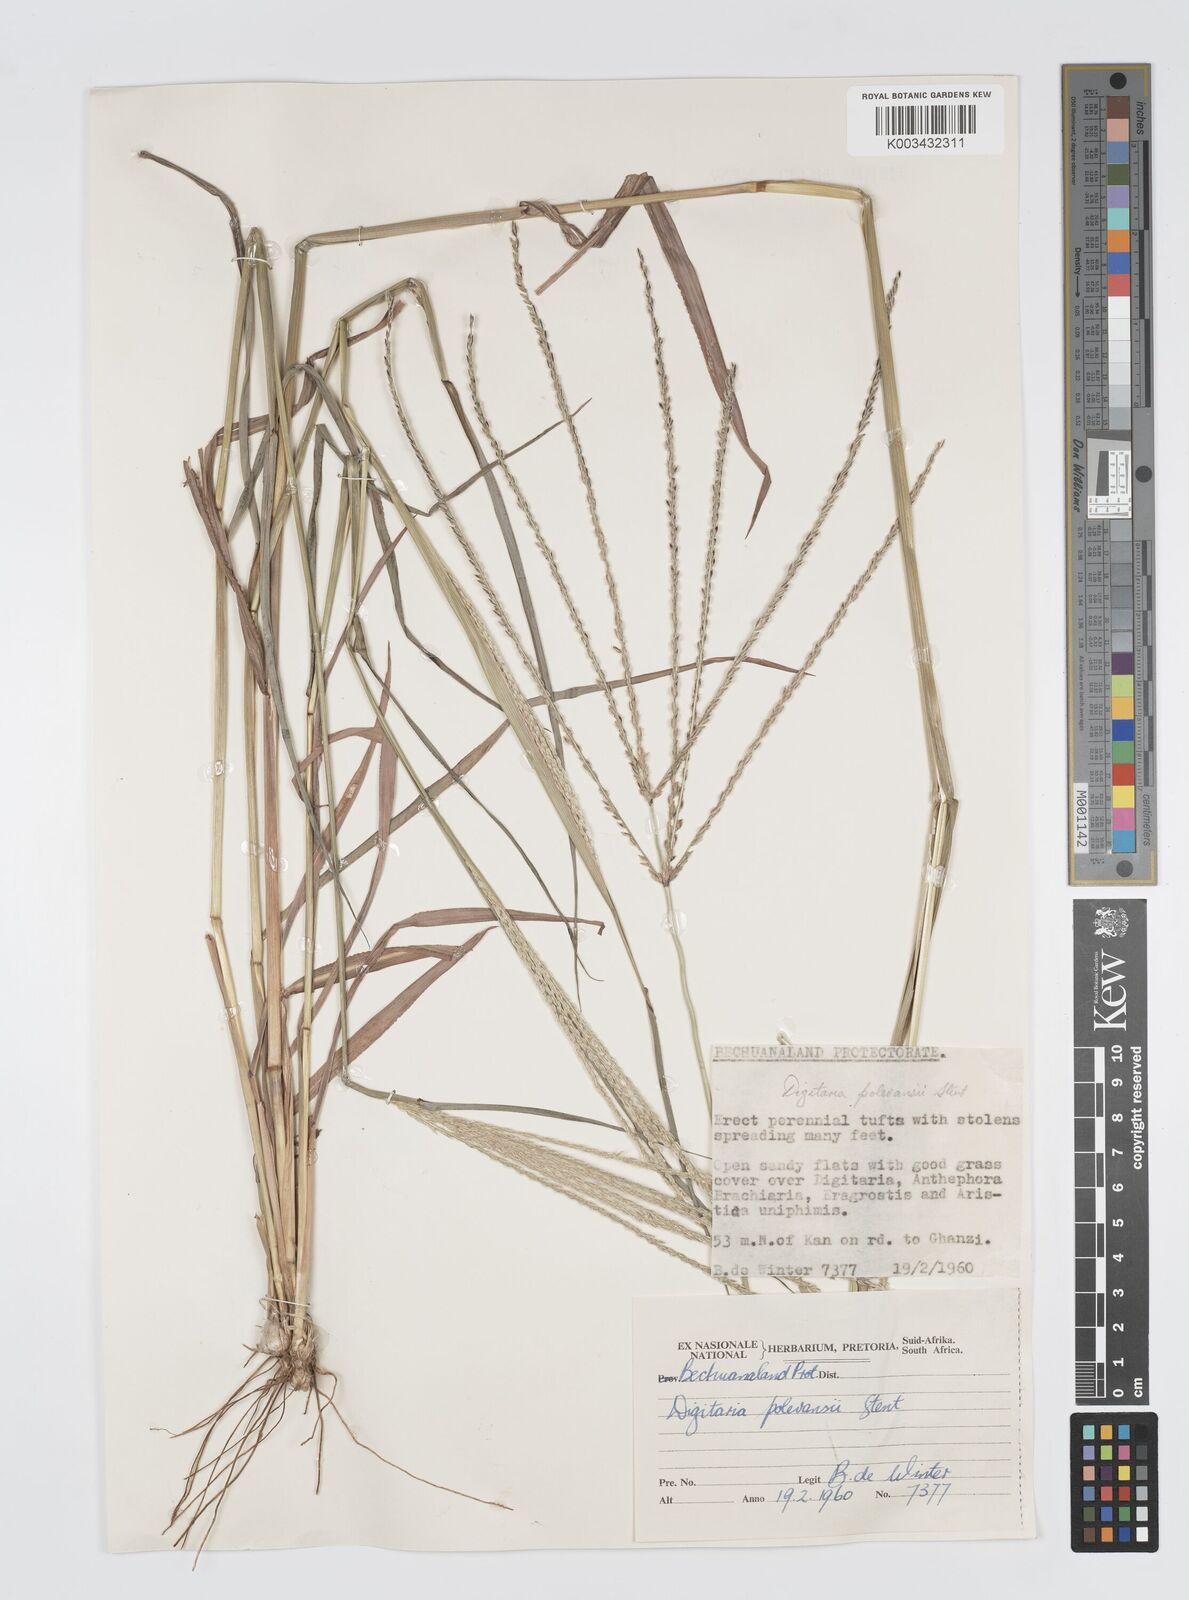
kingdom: Plantae
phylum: Tracheophyta
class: Liliopsida
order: Poales
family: Poaceae
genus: Digitaria
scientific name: Digitaria milanjiana
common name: Madagascar crabgrass
